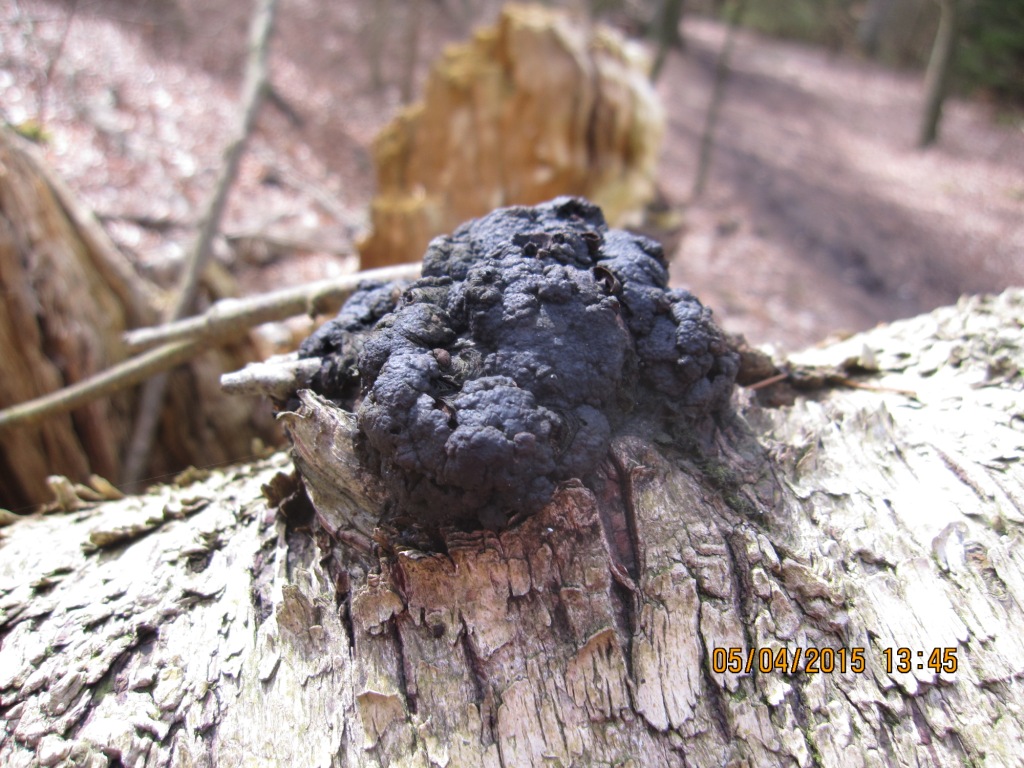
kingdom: Fungi
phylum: Basidiomycota
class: Agaricomycetes
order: Hymenochaetales
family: Hymenochaetaceae
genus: Inonotus
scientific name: Inonotus obliquus
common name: birke-spejlporesvamp
